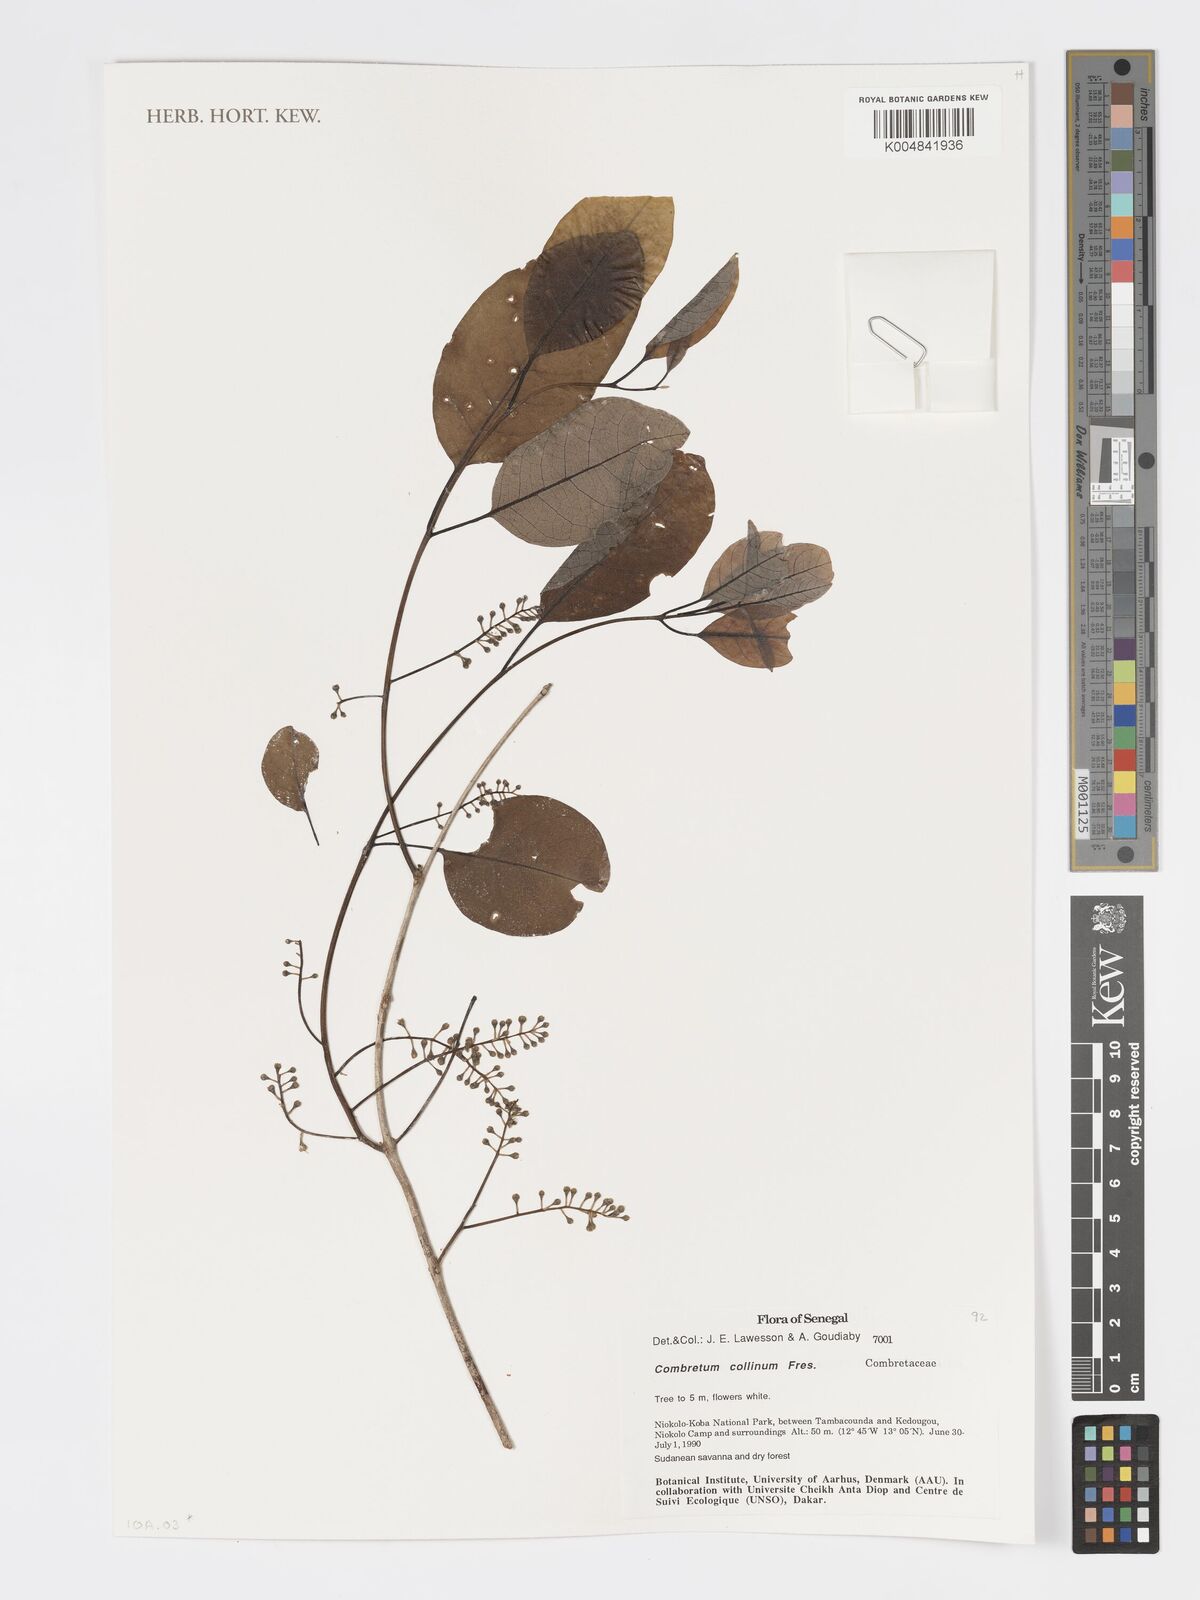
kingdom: Plantae
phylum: Tracheophyta
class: Magnoliopsida
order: Myrtales
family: Combretaceae
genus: Combretum
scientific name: Combretum collinum
